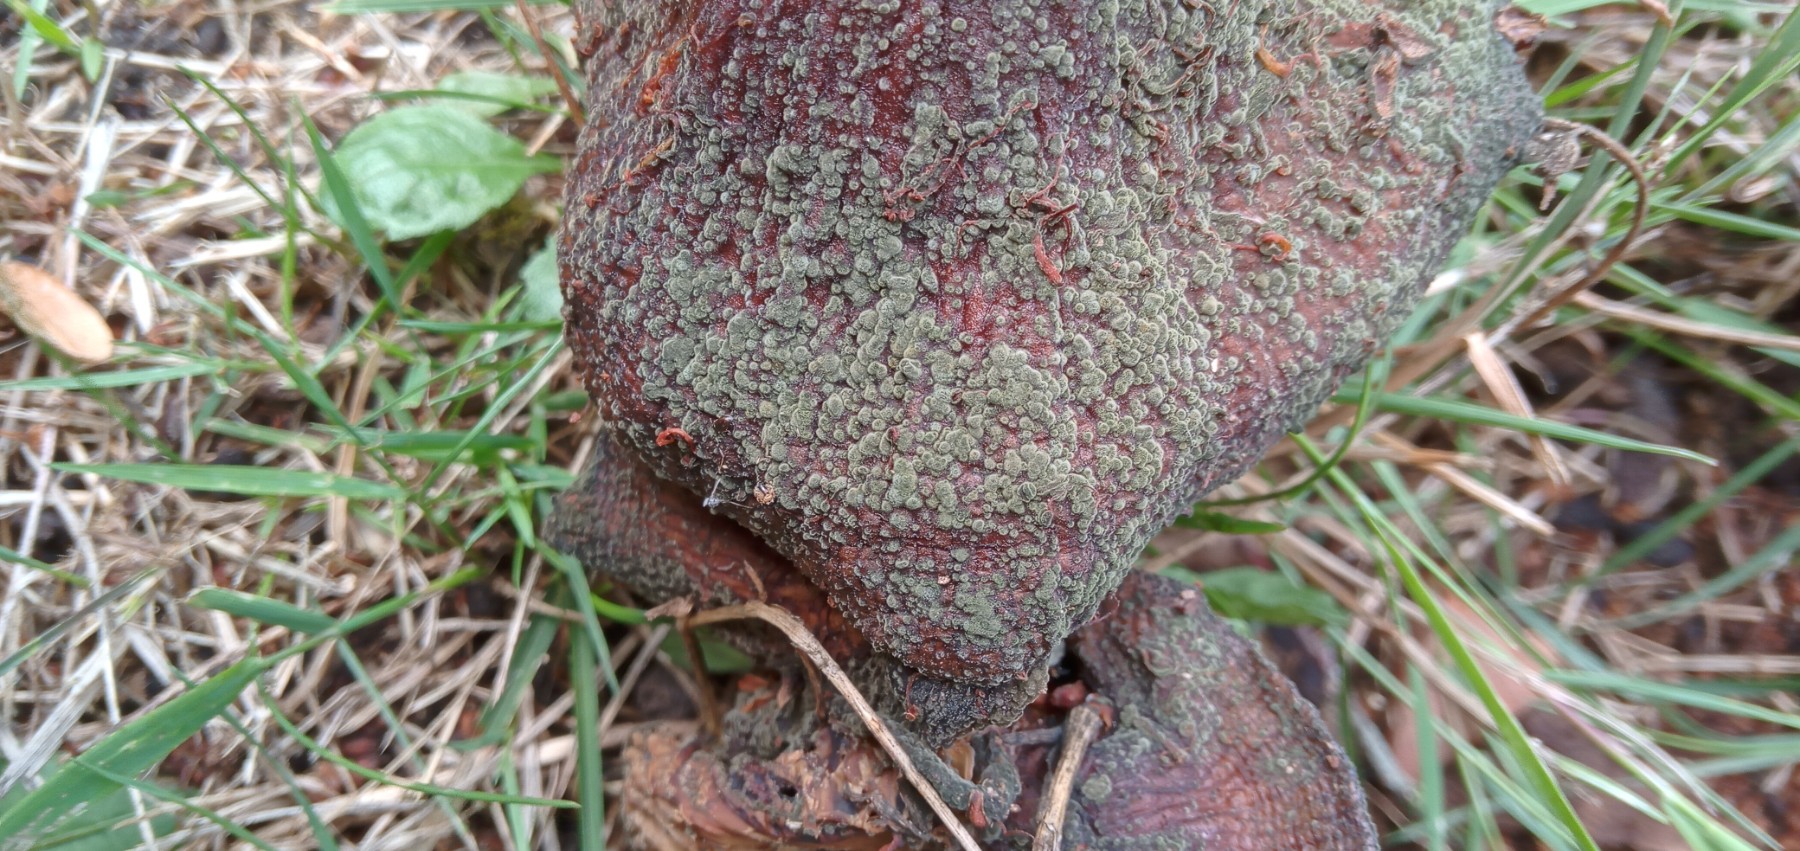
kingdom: Fungi
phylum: Ascomycota
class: Dothideomycetes
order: Capnodiales
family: Cladosporiaceae
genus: Cladosporium
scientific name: Cladosporium
